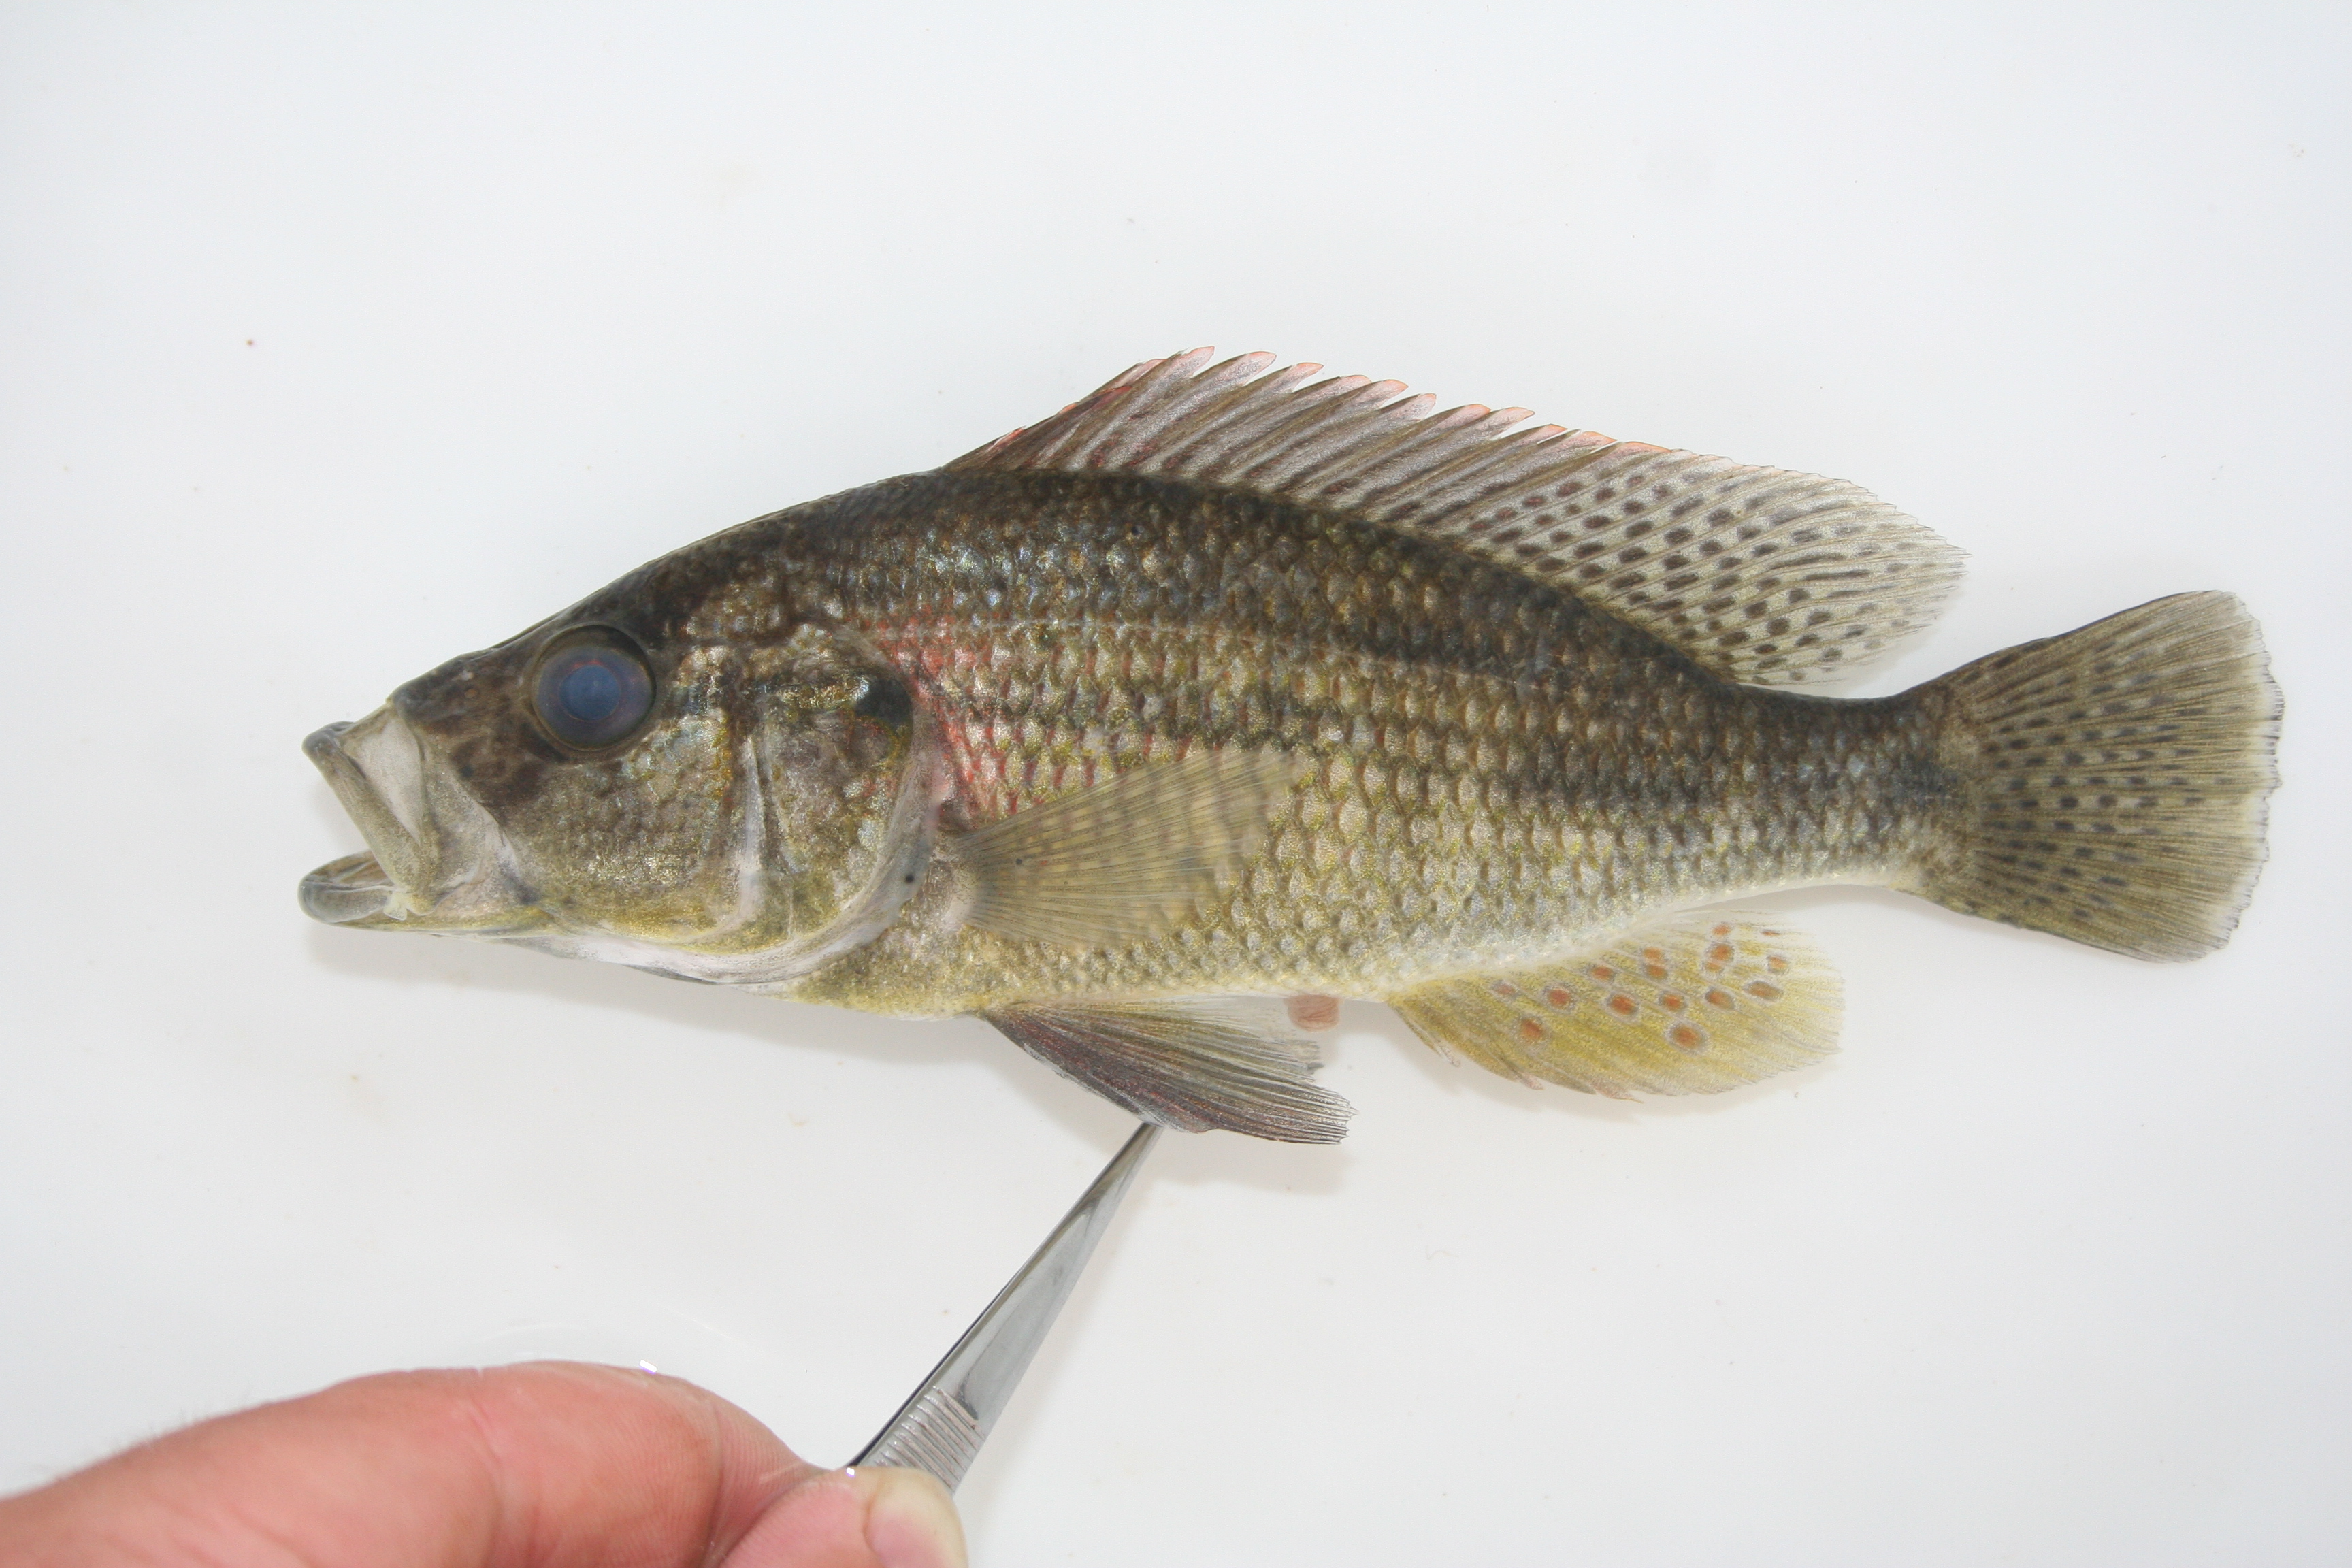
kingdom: Animalia
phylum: Chordata
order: Perciformes
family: Cichlidae
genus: Serranochromis
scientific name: Serranochromis
